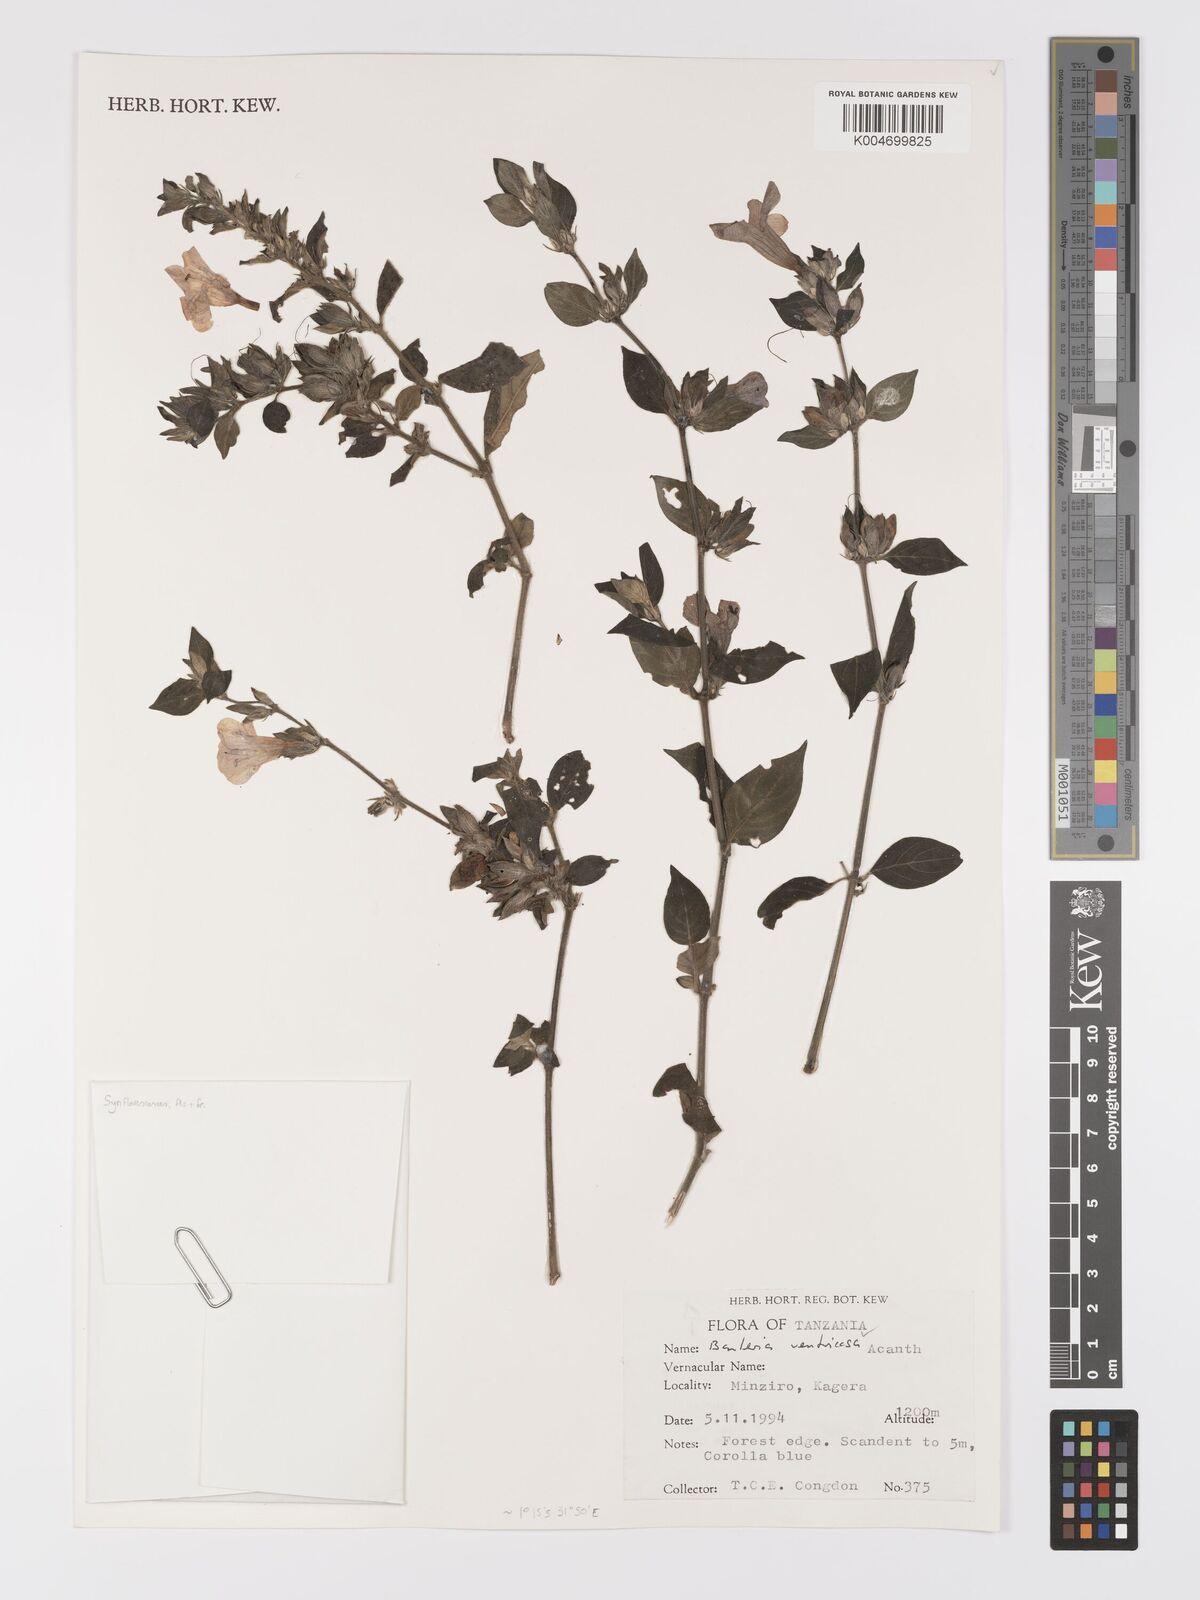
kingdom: Plantae
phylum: Tracheophyta
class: Magnoliopsida
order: Lamiales
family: Acanthaceae
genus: Barleria
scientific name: Barleria ventricosa
